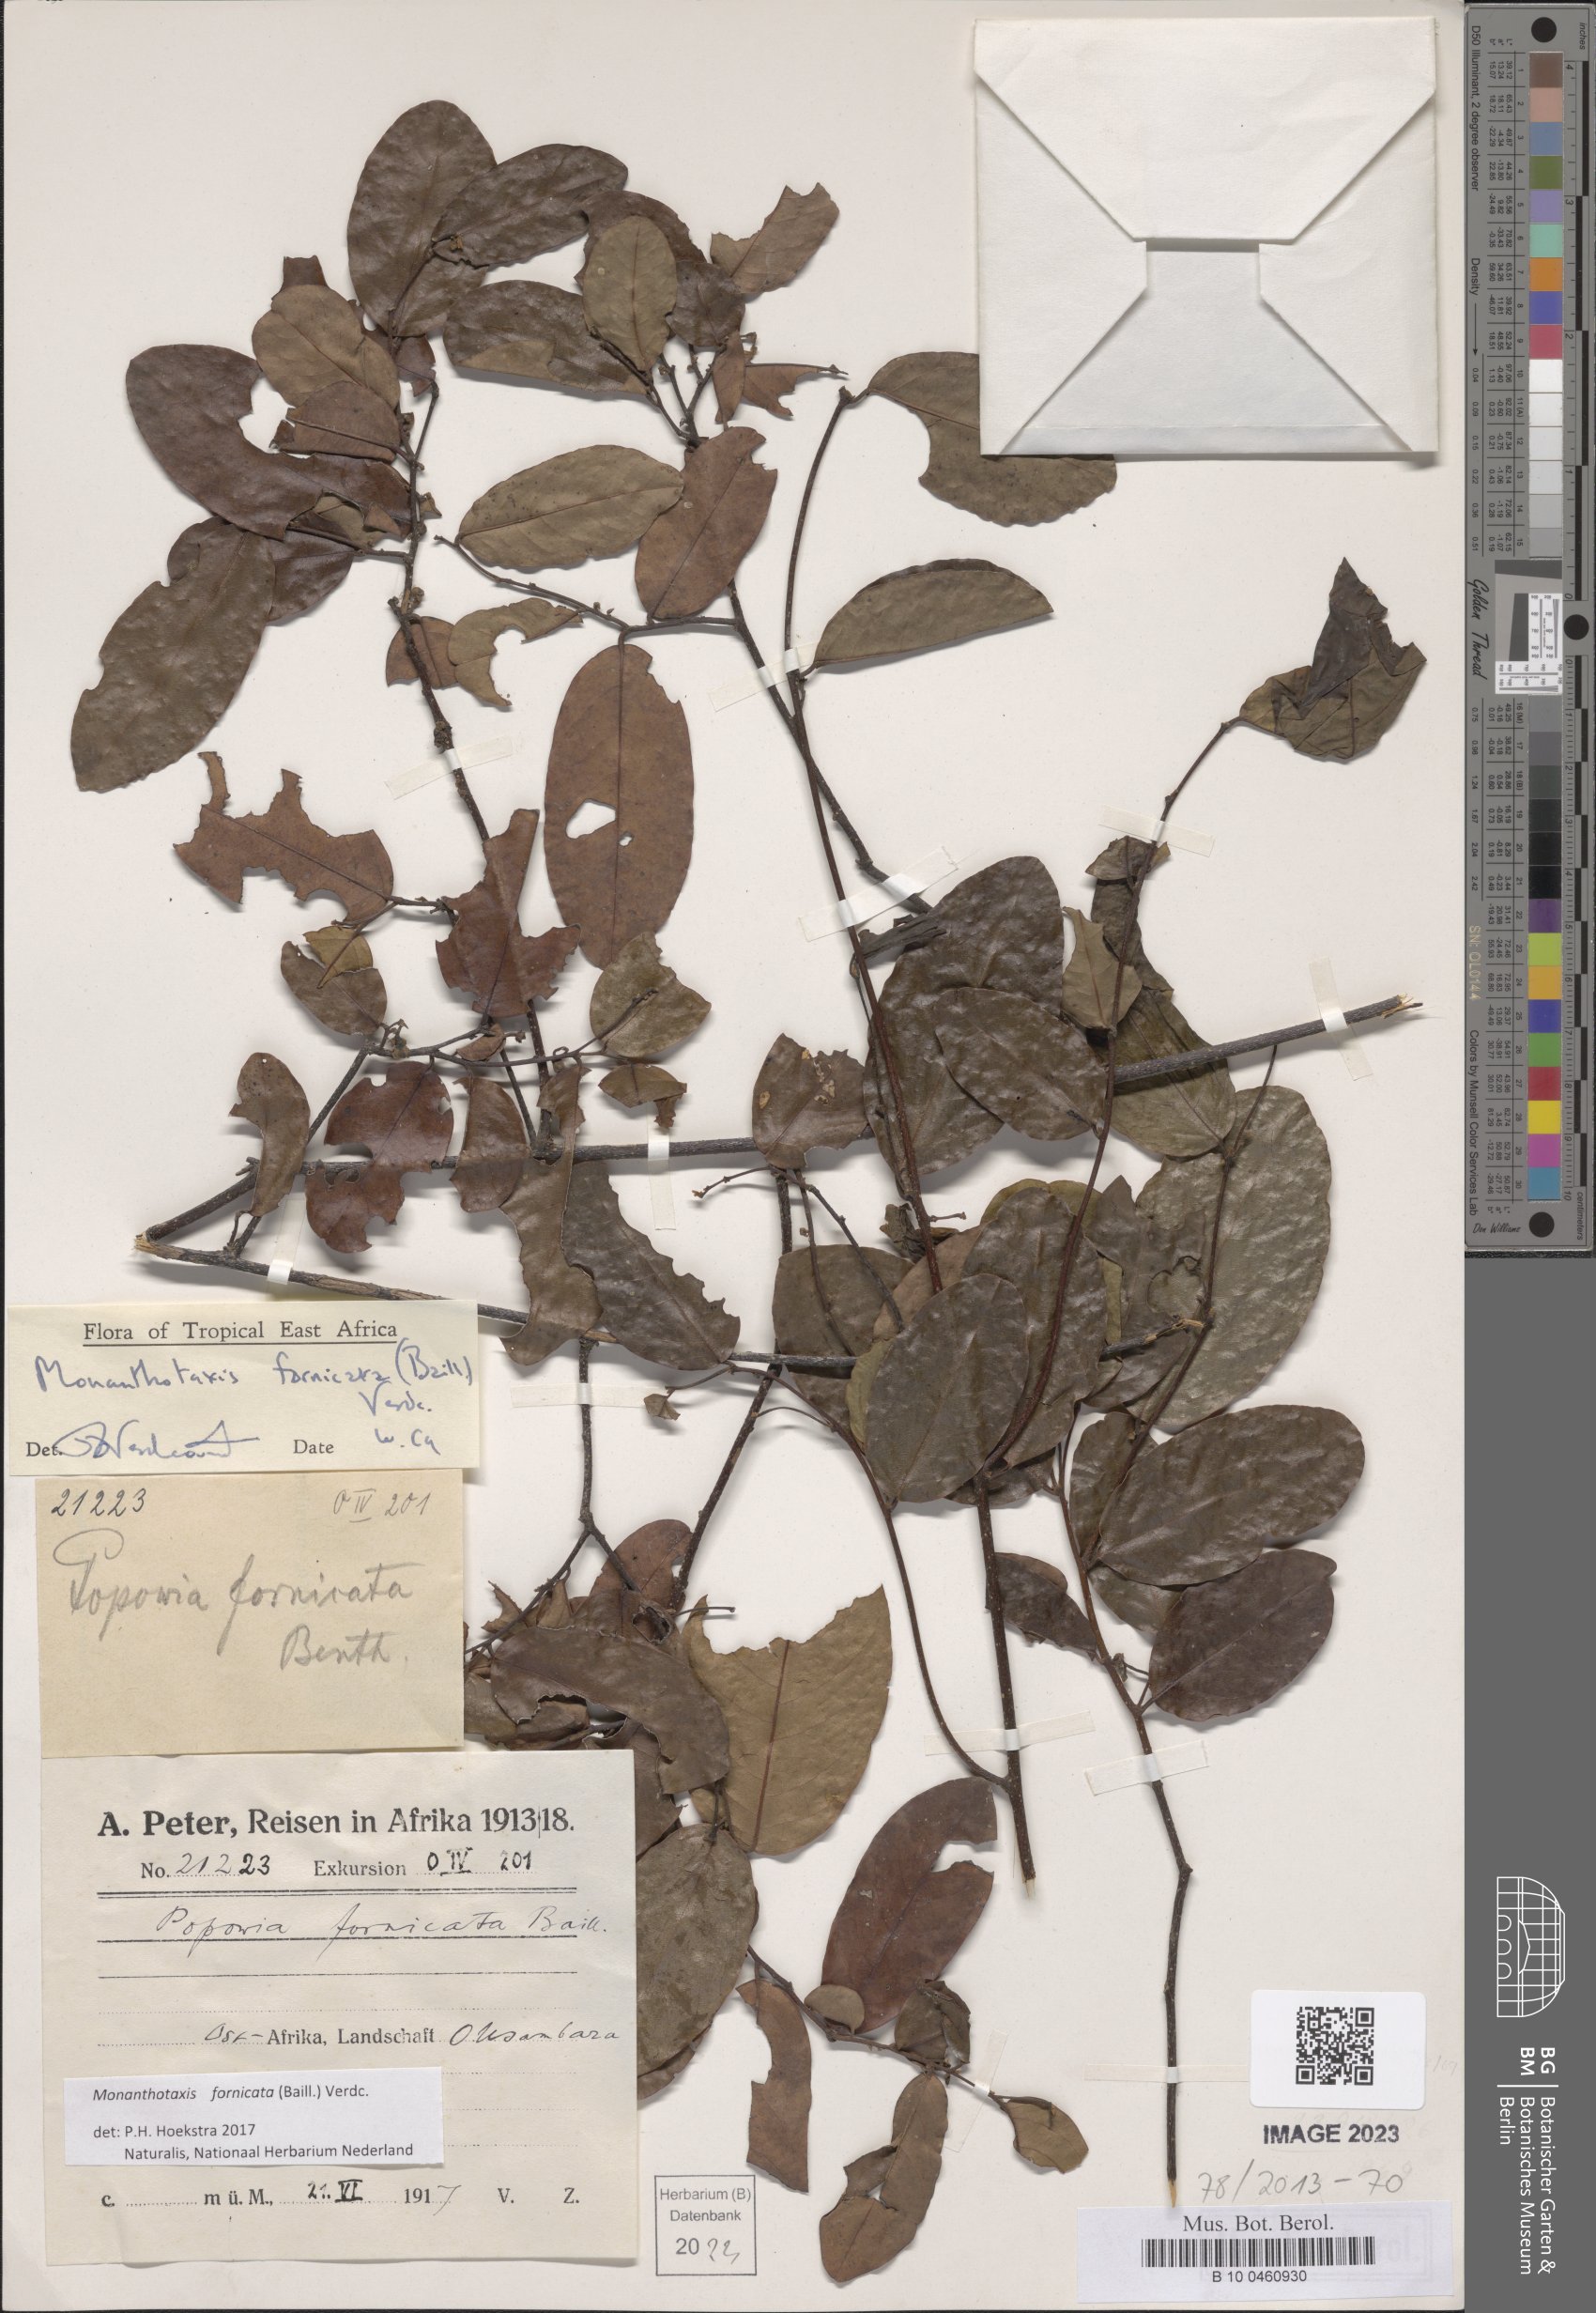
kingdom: Plantae
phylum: Tracheophyta
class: Magnoliopsida
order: Magnoliales
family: Annonaceae
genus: Monanthotaxis
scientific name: Monanthotaxis fornicata
